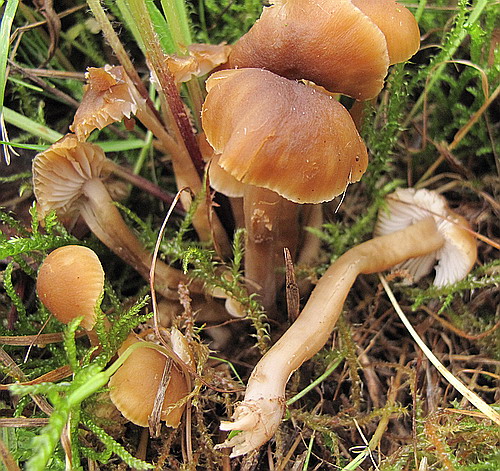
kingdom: Fungi
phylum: Basidiomycota
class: Agaricomycetes
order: Agaricales
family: Clavariaceae
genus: Camarophyllopsis
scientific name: Camarophyllopsis schulzeri
